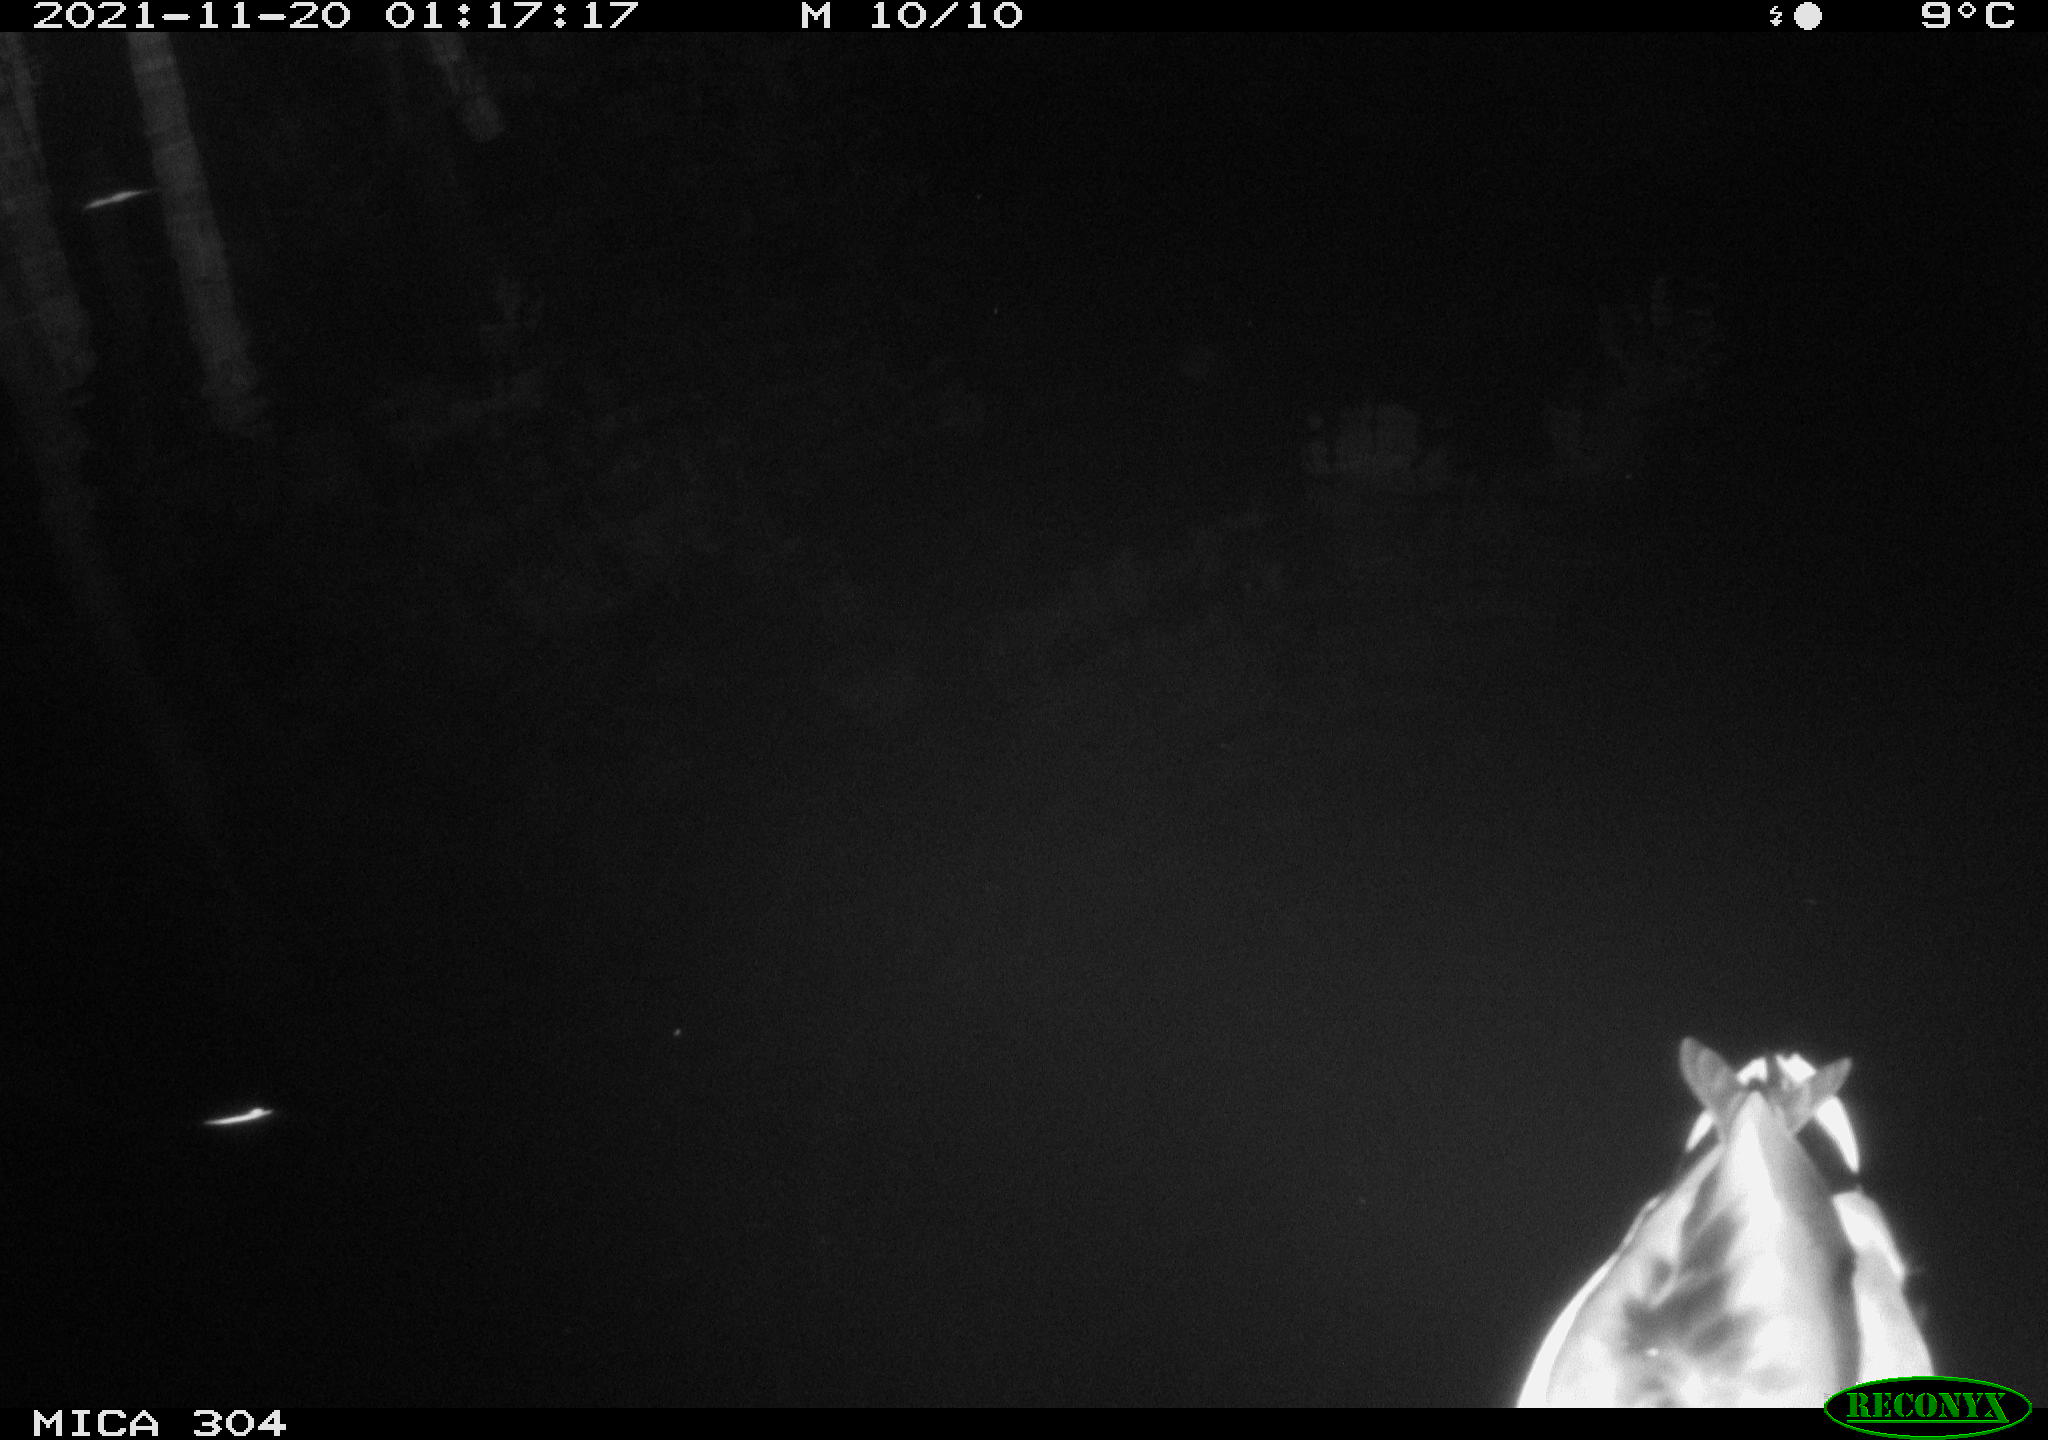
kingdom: Animalia
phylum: Chordata
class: Aves
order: Anseriformes
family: Anatidae
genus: Anas
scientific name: Anas platyrhynchos
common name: Mallard
